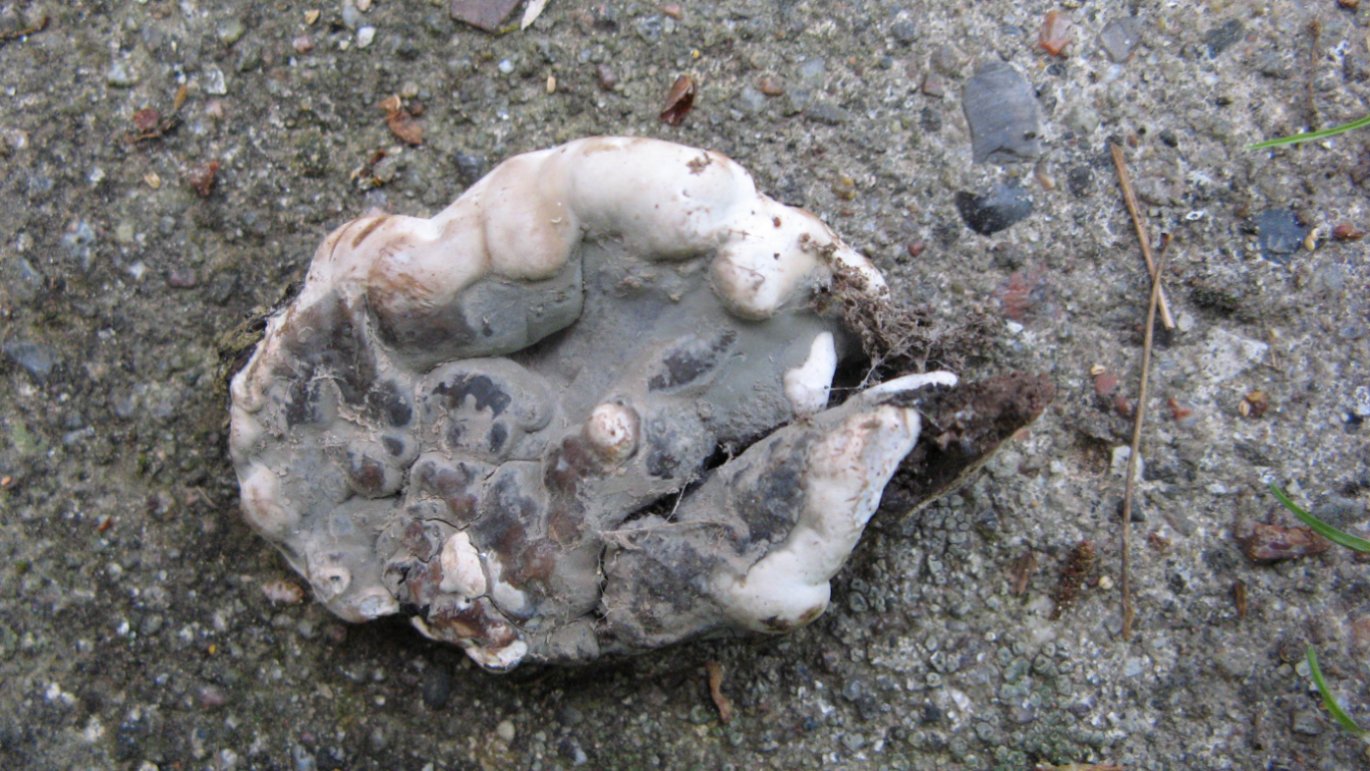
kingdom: Fungi
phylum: Ascomycota
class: Sordariomycetes
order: Xylariales
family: Xylariaceae
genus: Kretzschmaria
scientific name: Kretzschmaria deusta
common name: stor kulsvamp
